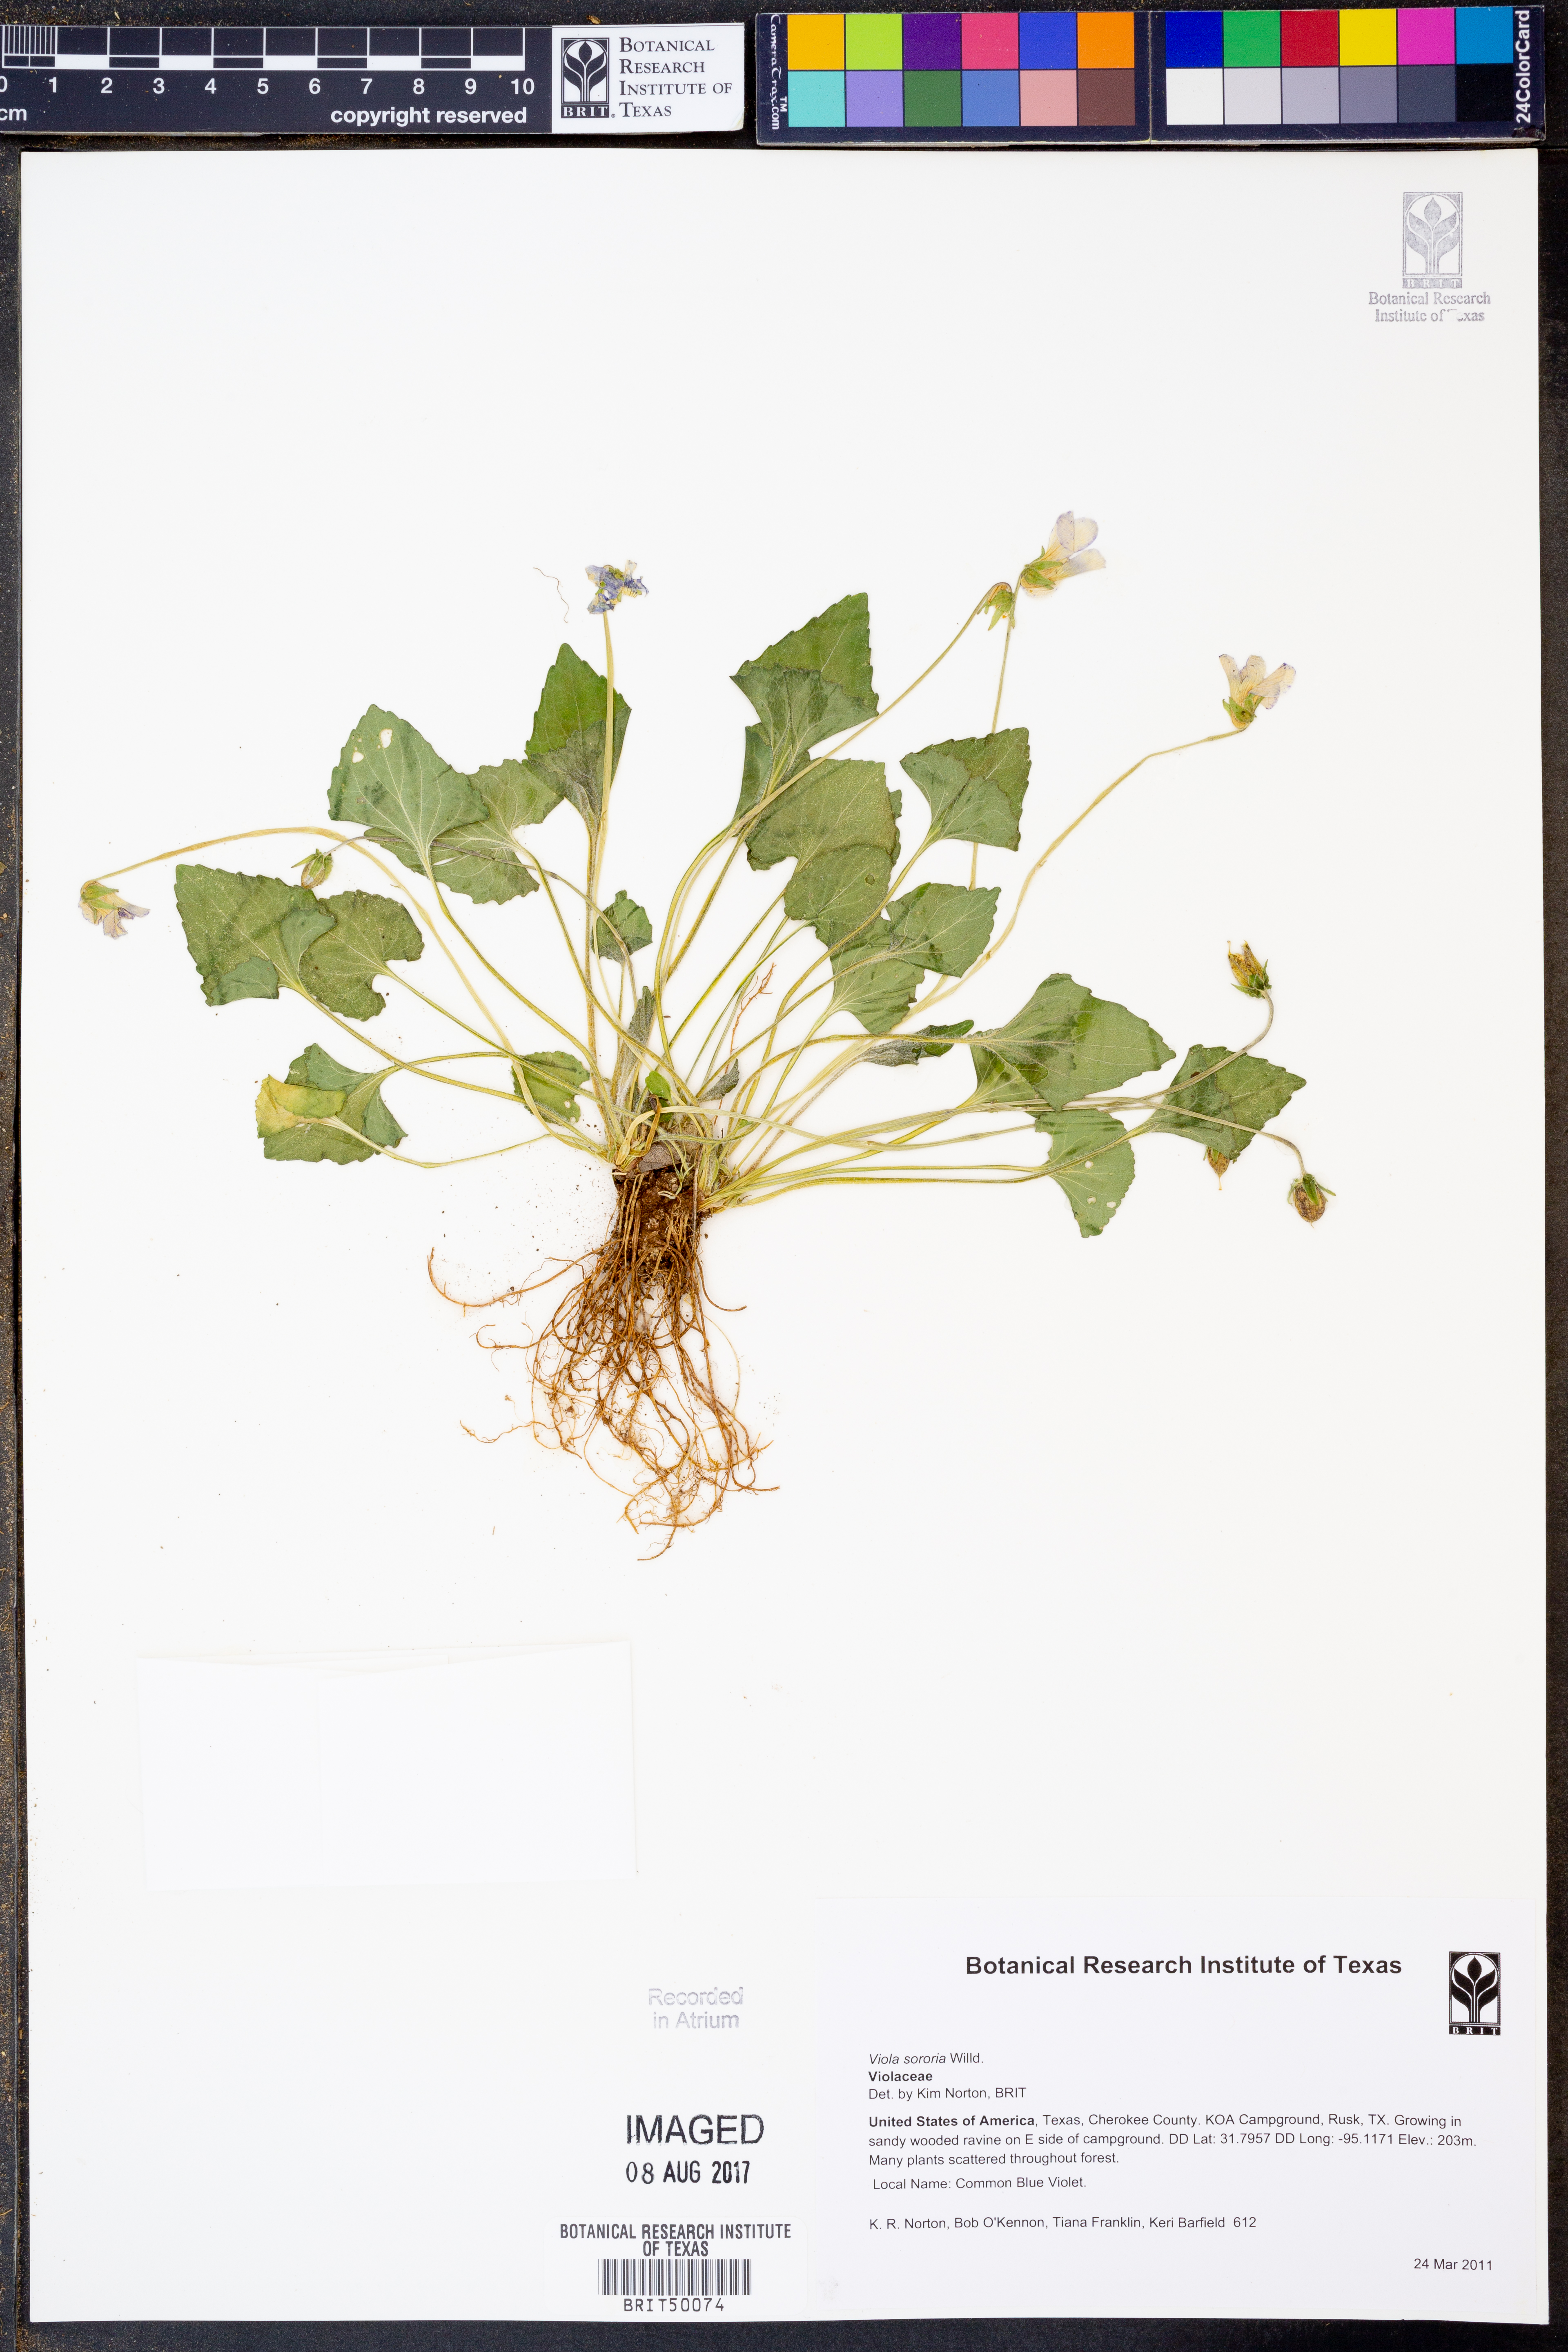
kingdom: Plantae
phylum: Tracheophyta
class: Magnoliopsida
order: Malpighiales
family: Violaceae
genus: Viola
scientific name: Viola sororia
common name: Dooryard violet
